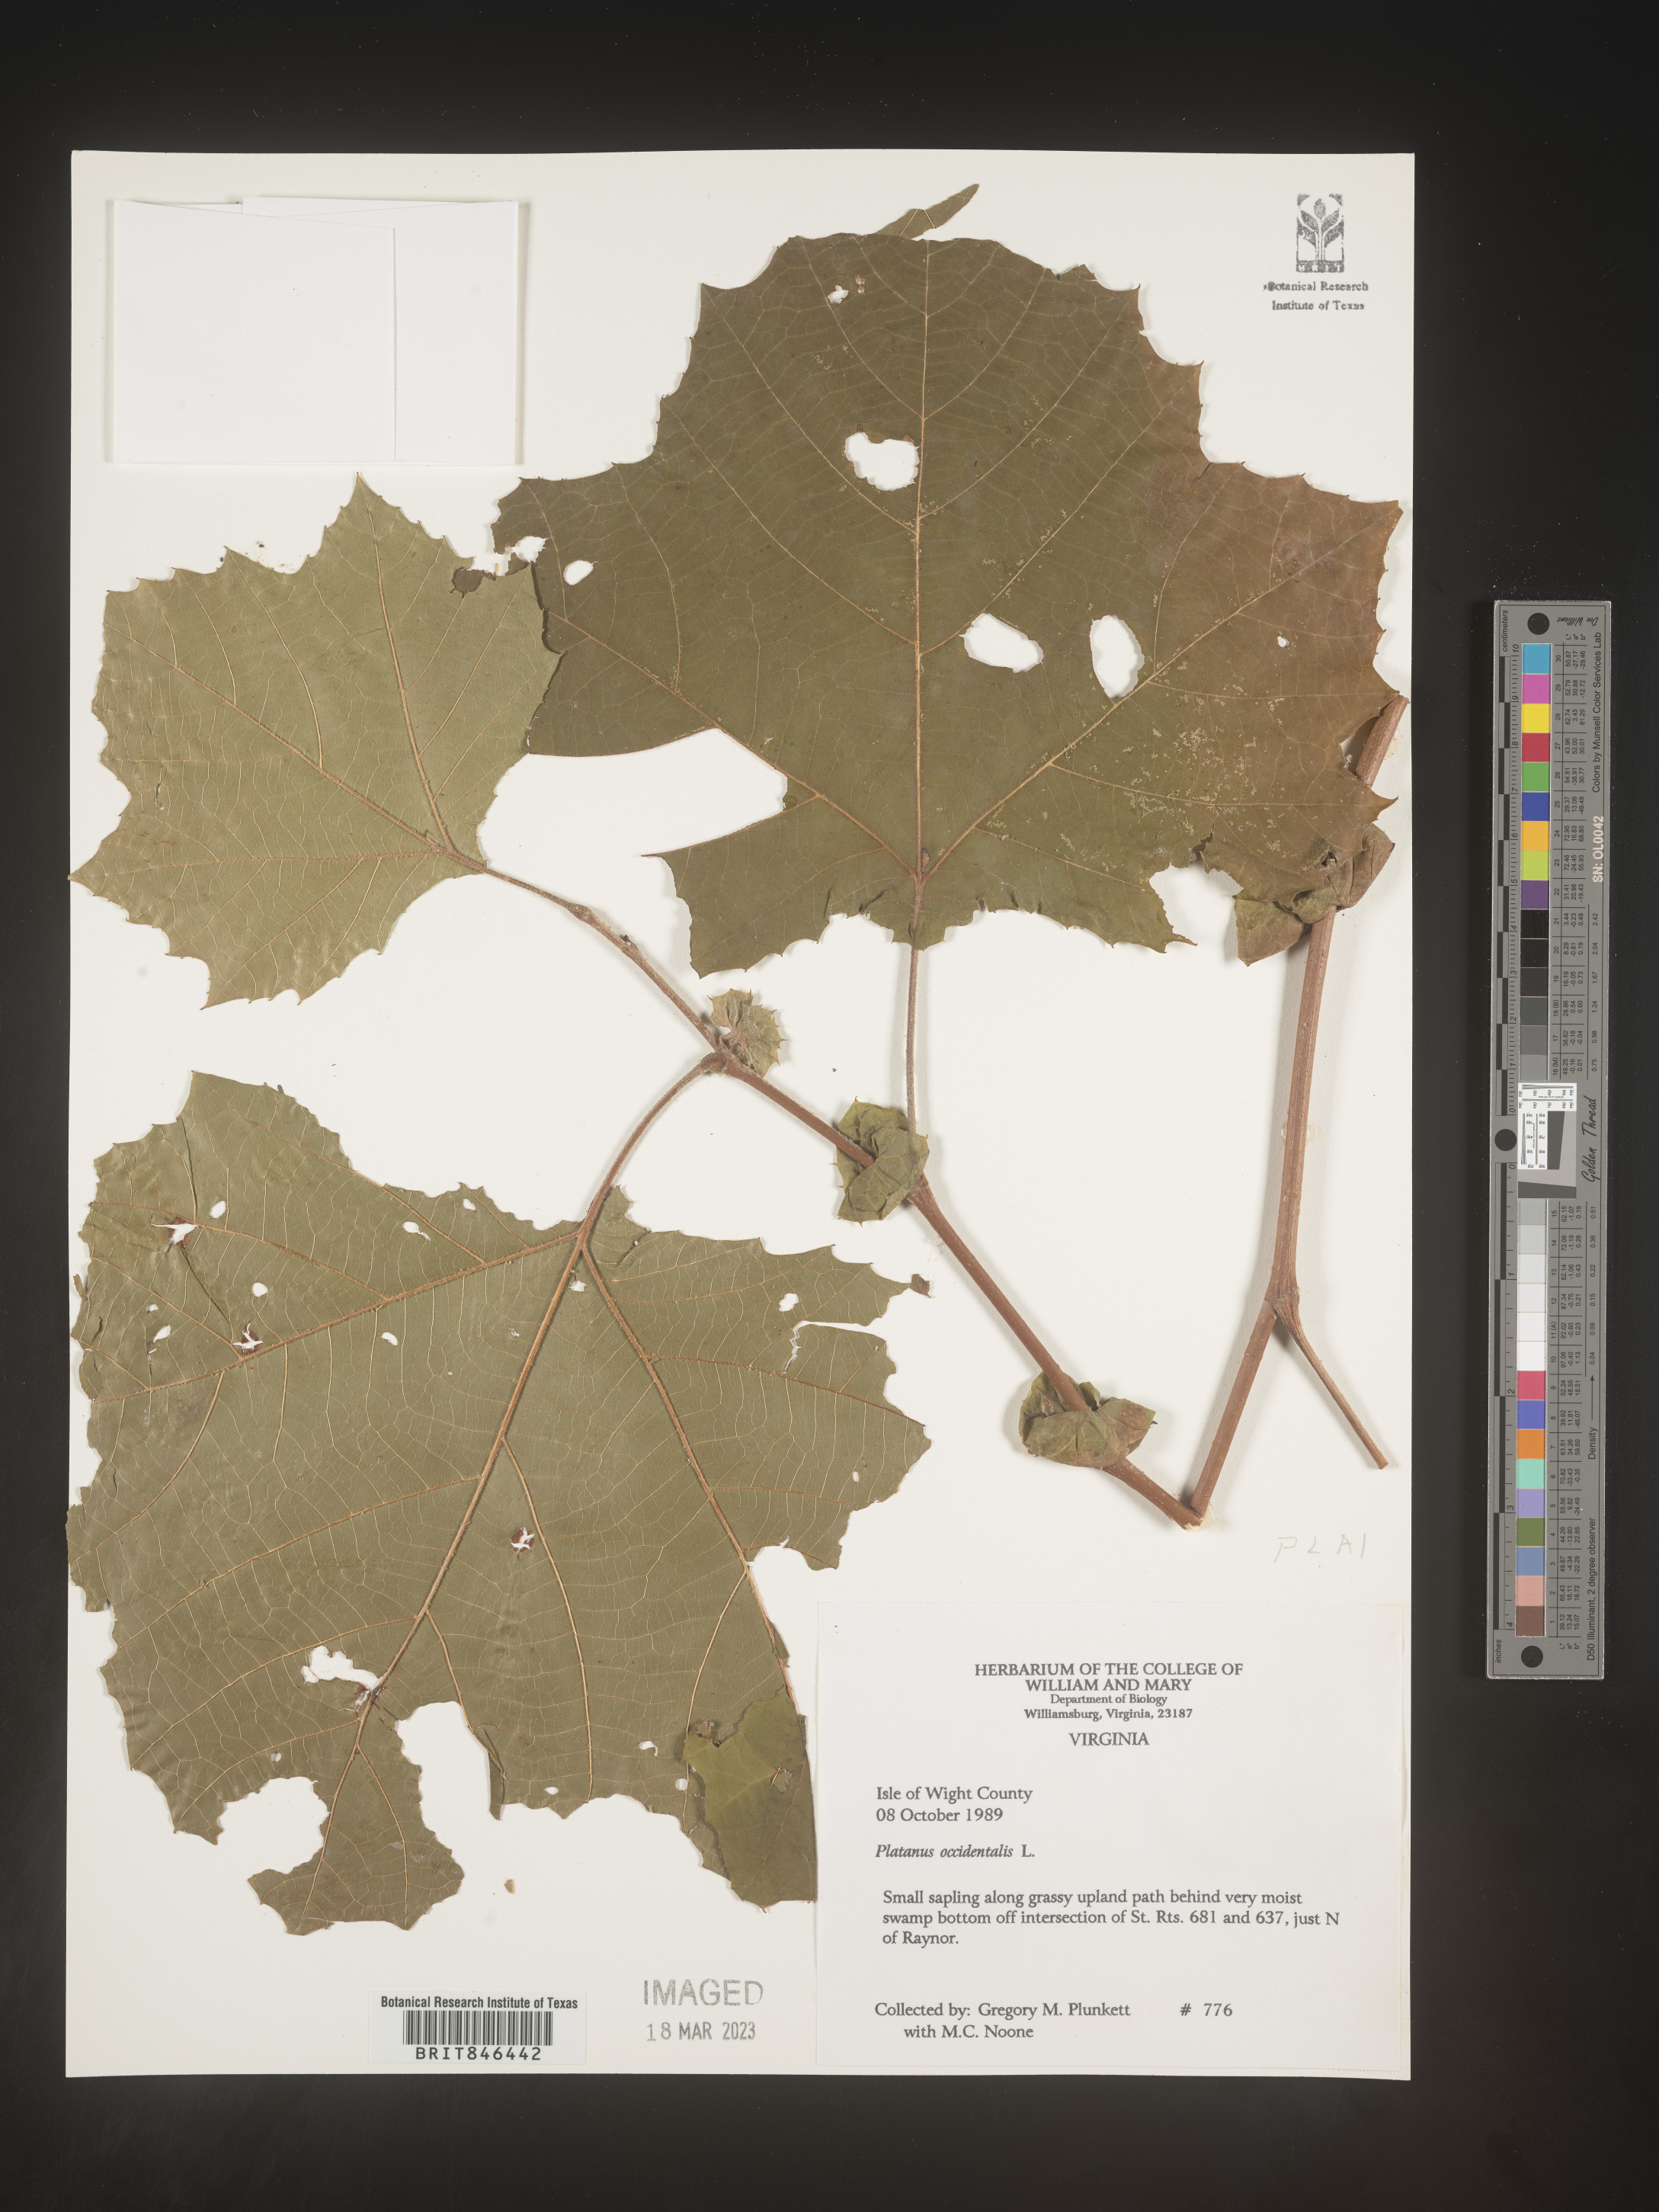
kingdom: Plantae
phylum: Tracheophyta
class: Magnoliopsida
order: Proteales
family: Platanaceae
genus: Platanus
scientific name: Platanus occidentalis
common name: American sycamore
